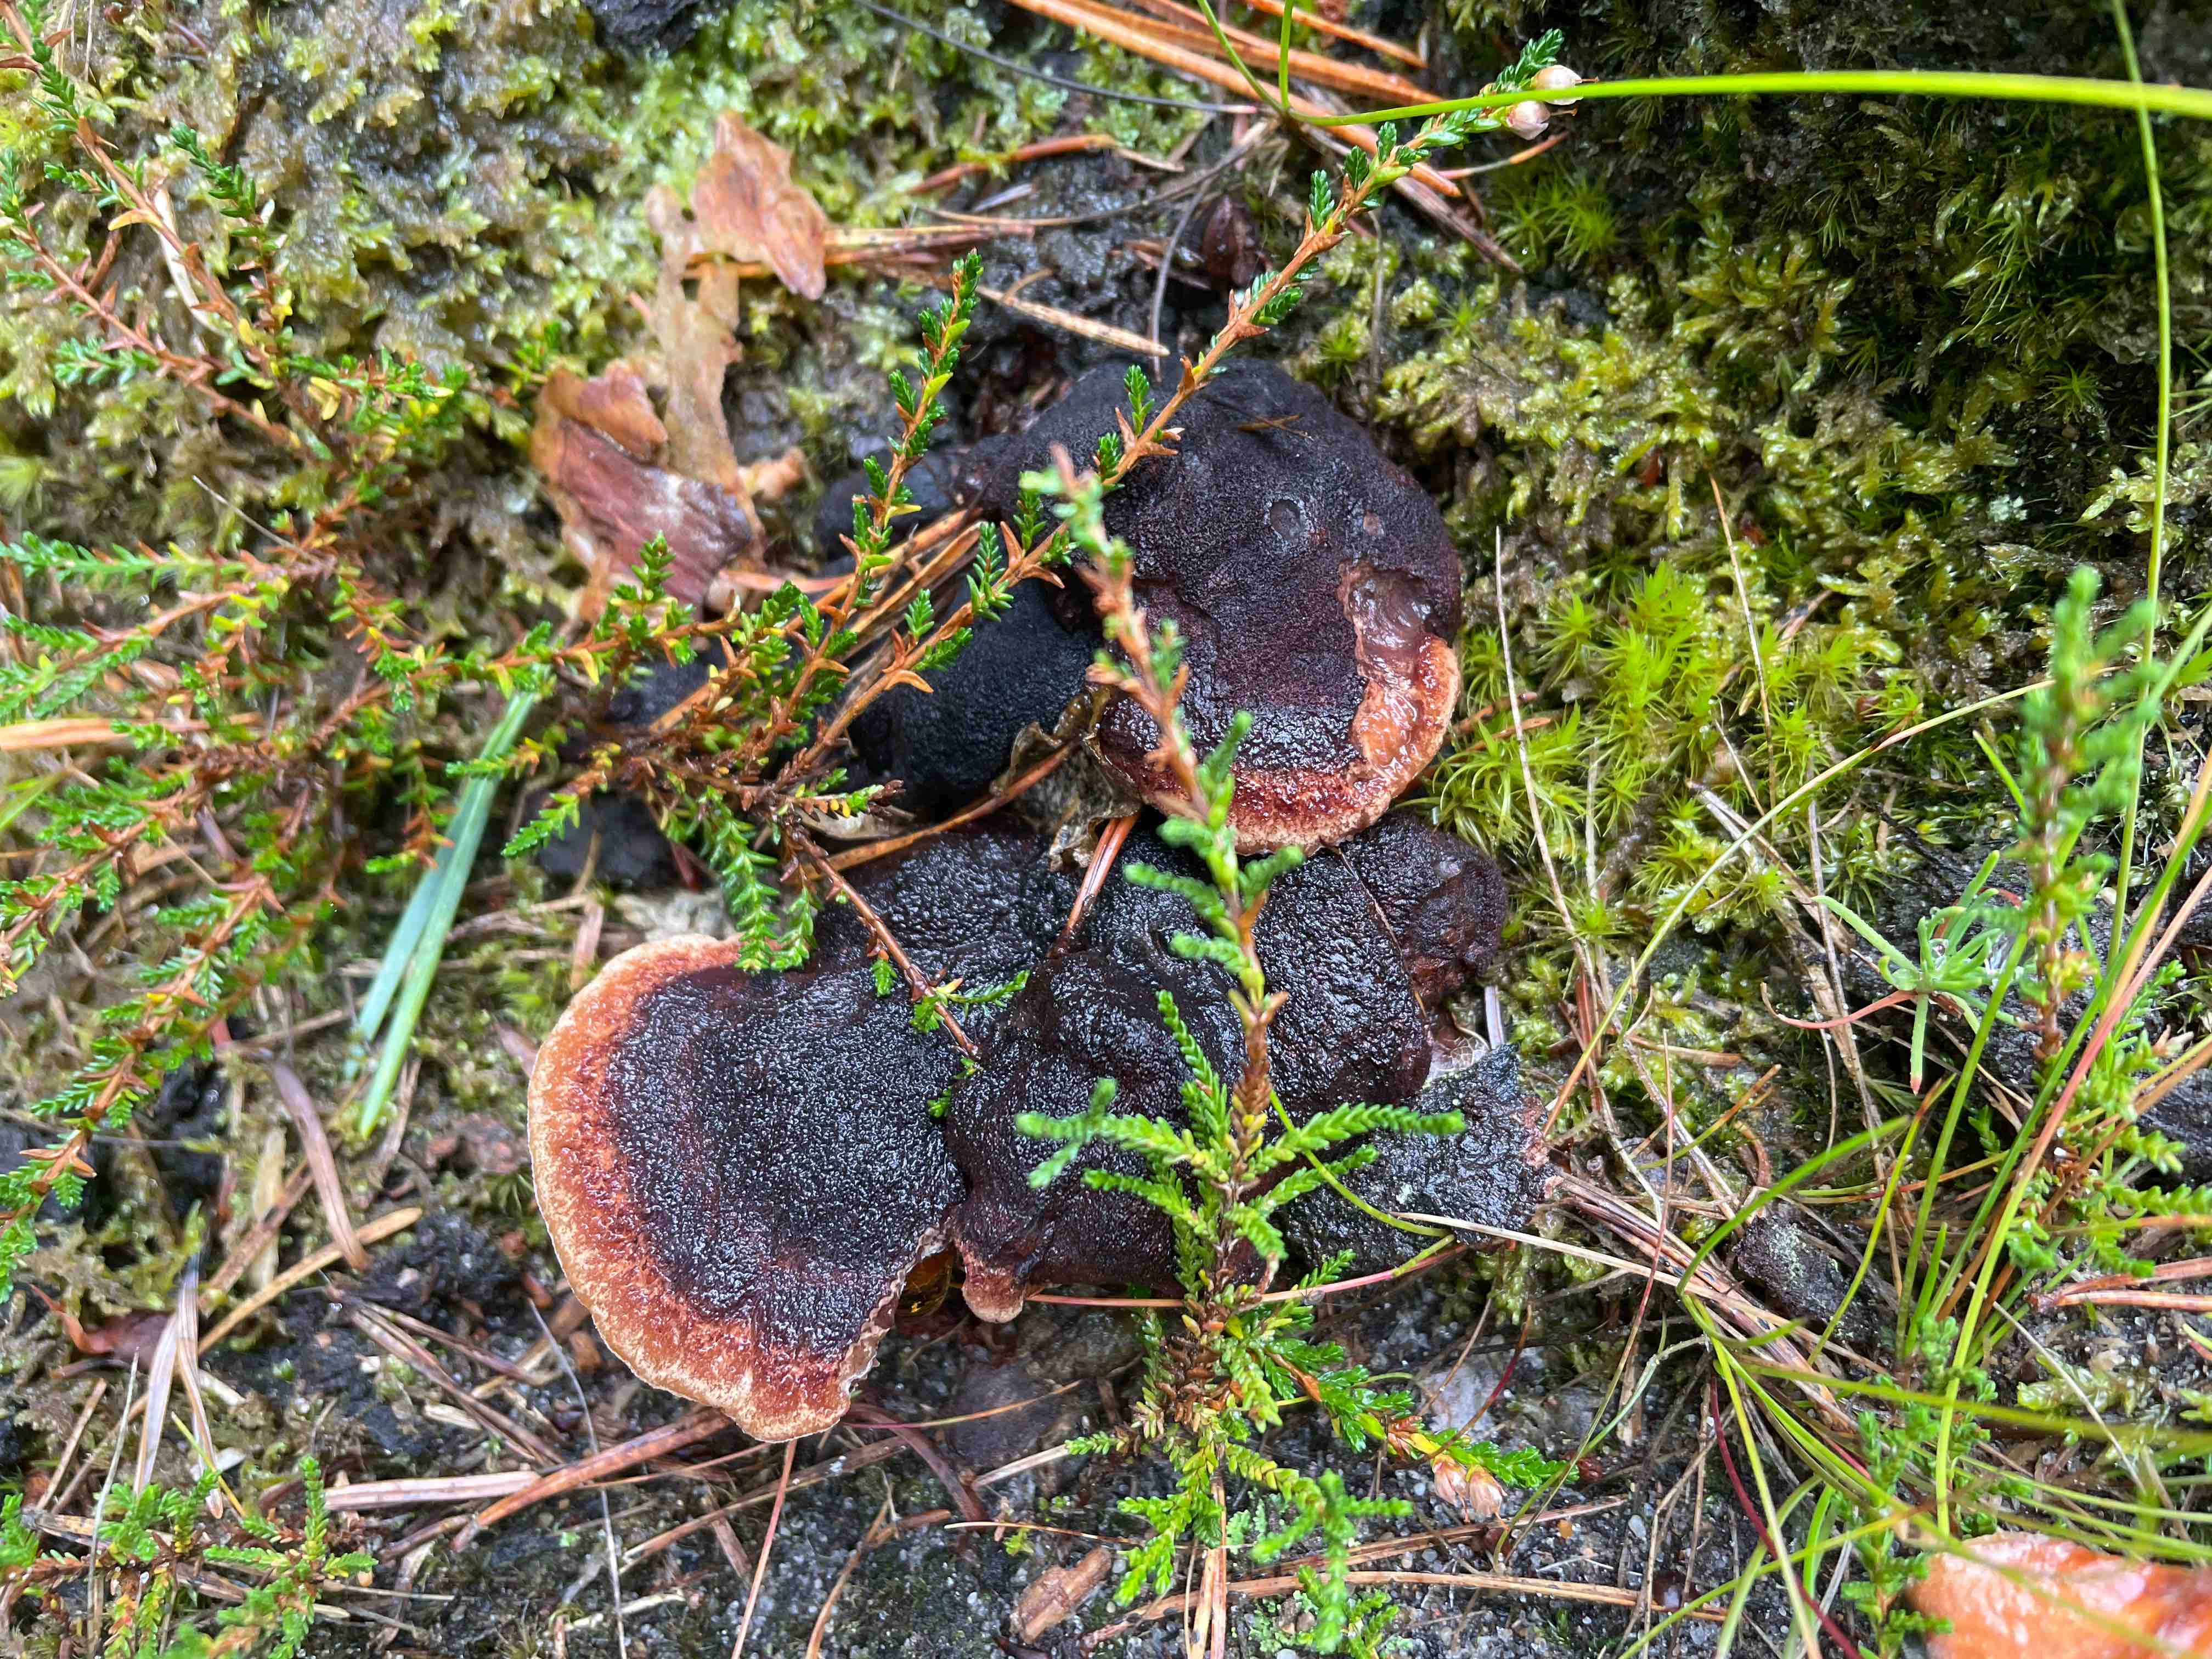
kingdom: Fungi
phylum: Basidiomycota
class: Agaricomycetes
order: Polyporales
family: Ischnodermataceae
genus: Ischnoderma
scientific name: Ischnoderma benzoinum
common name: gran-tjæreporesvamp
